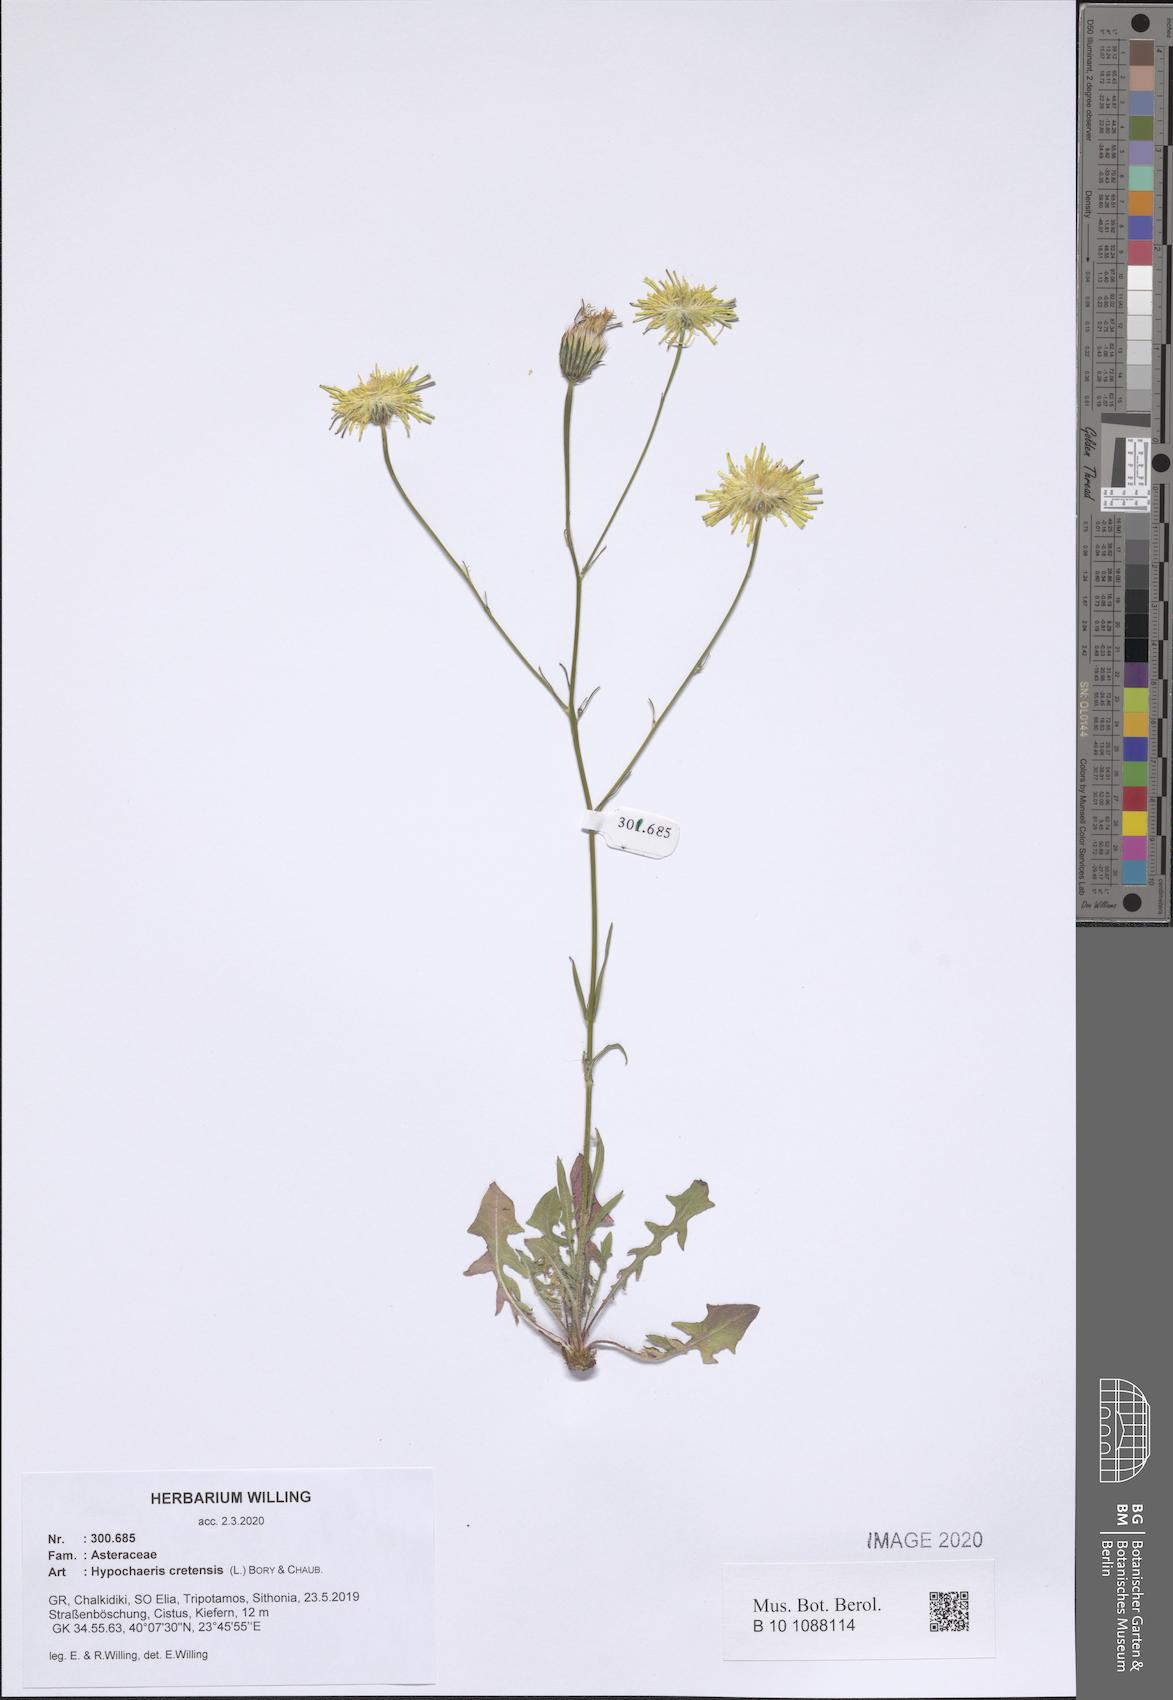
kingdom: Plantae
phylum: Tracheophyta
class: Magnoliopsida
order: Asterales
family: Asteraceae
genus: Hypochaeris
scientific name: Hypochaeris cretensis
